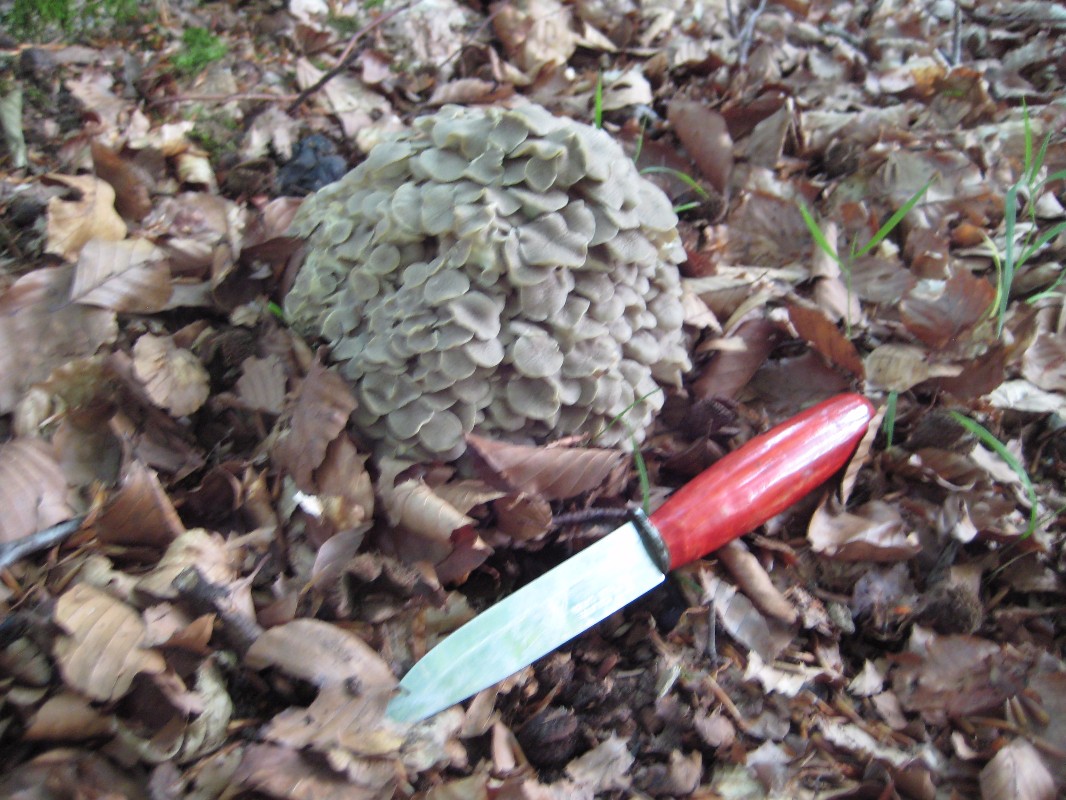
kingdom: Fungi
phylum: Basidiomycota
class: Agaricomycetes
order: Polyporales
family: Polyporaceae
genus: Polyporus
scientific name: Polyporus umbellatus
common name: skærmformet stilkporesvamp
